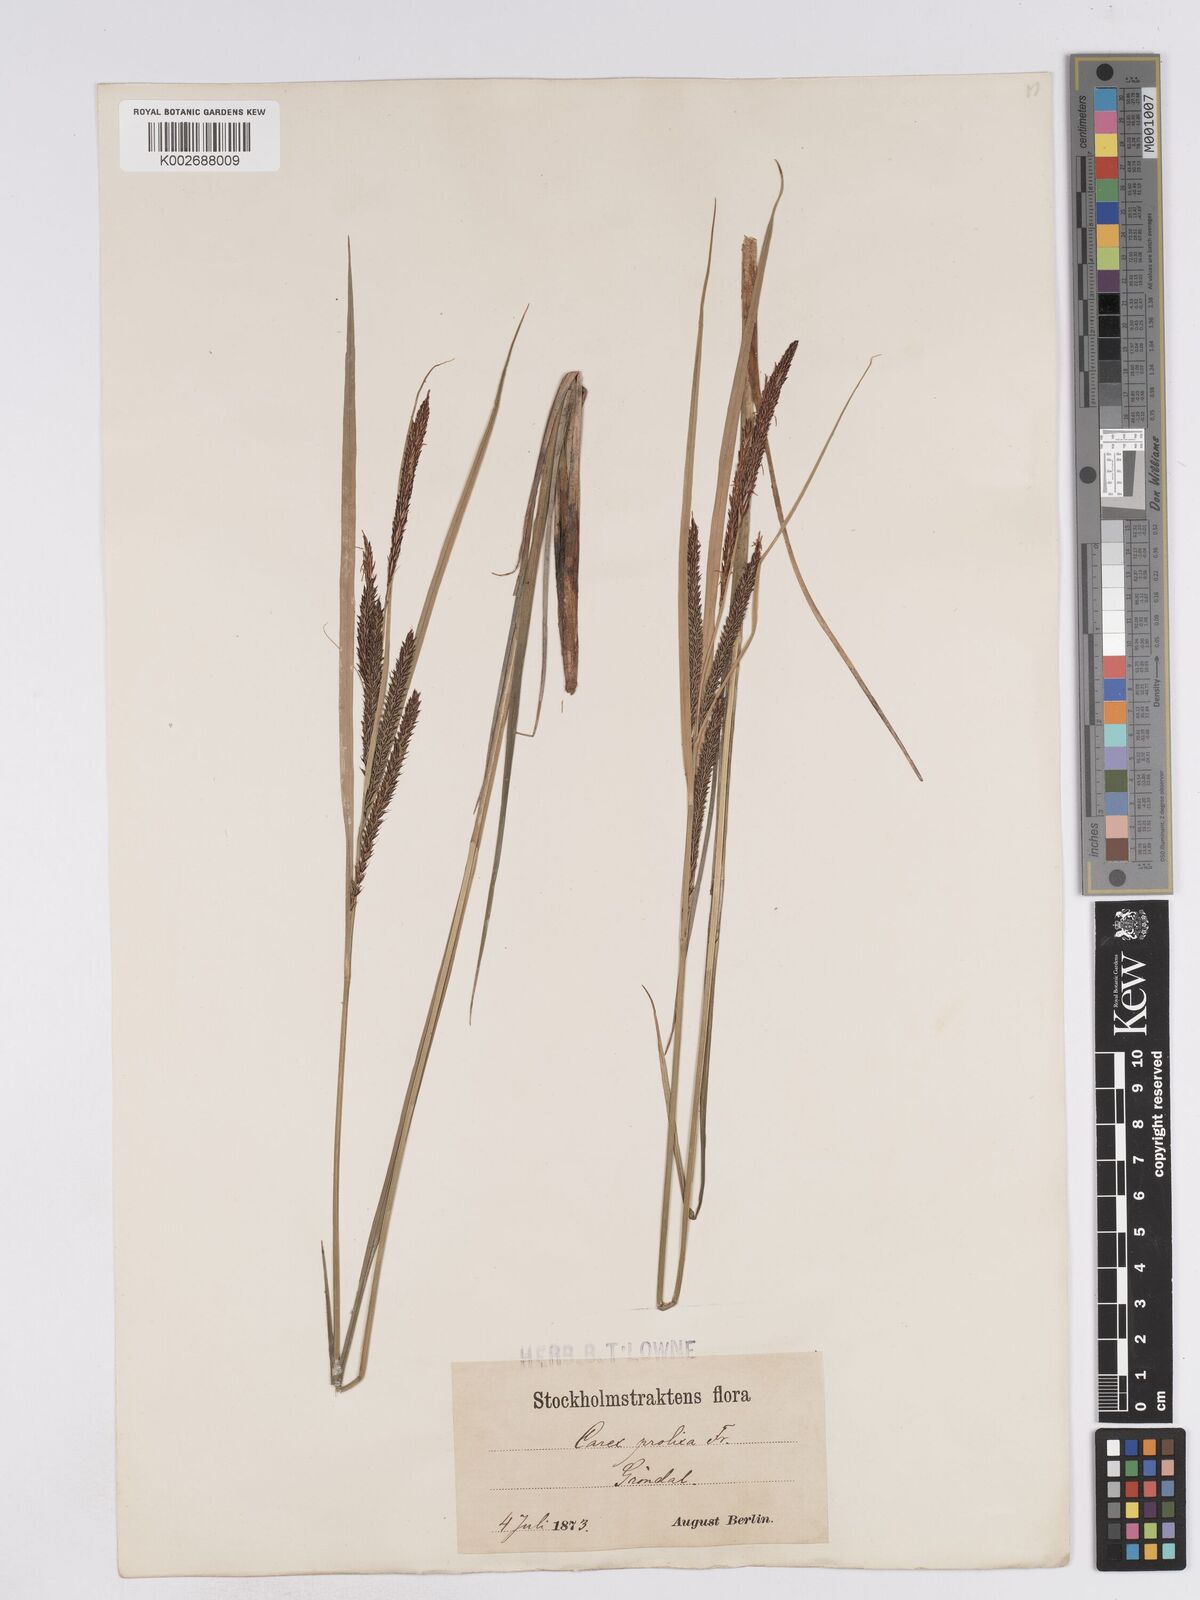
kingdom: Plantae
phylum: Tracheophyta
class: Liliopsida
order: Poales
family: Cyperaceae
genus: Carex
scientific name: Carex acuta
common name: Slender tufted-sedge
